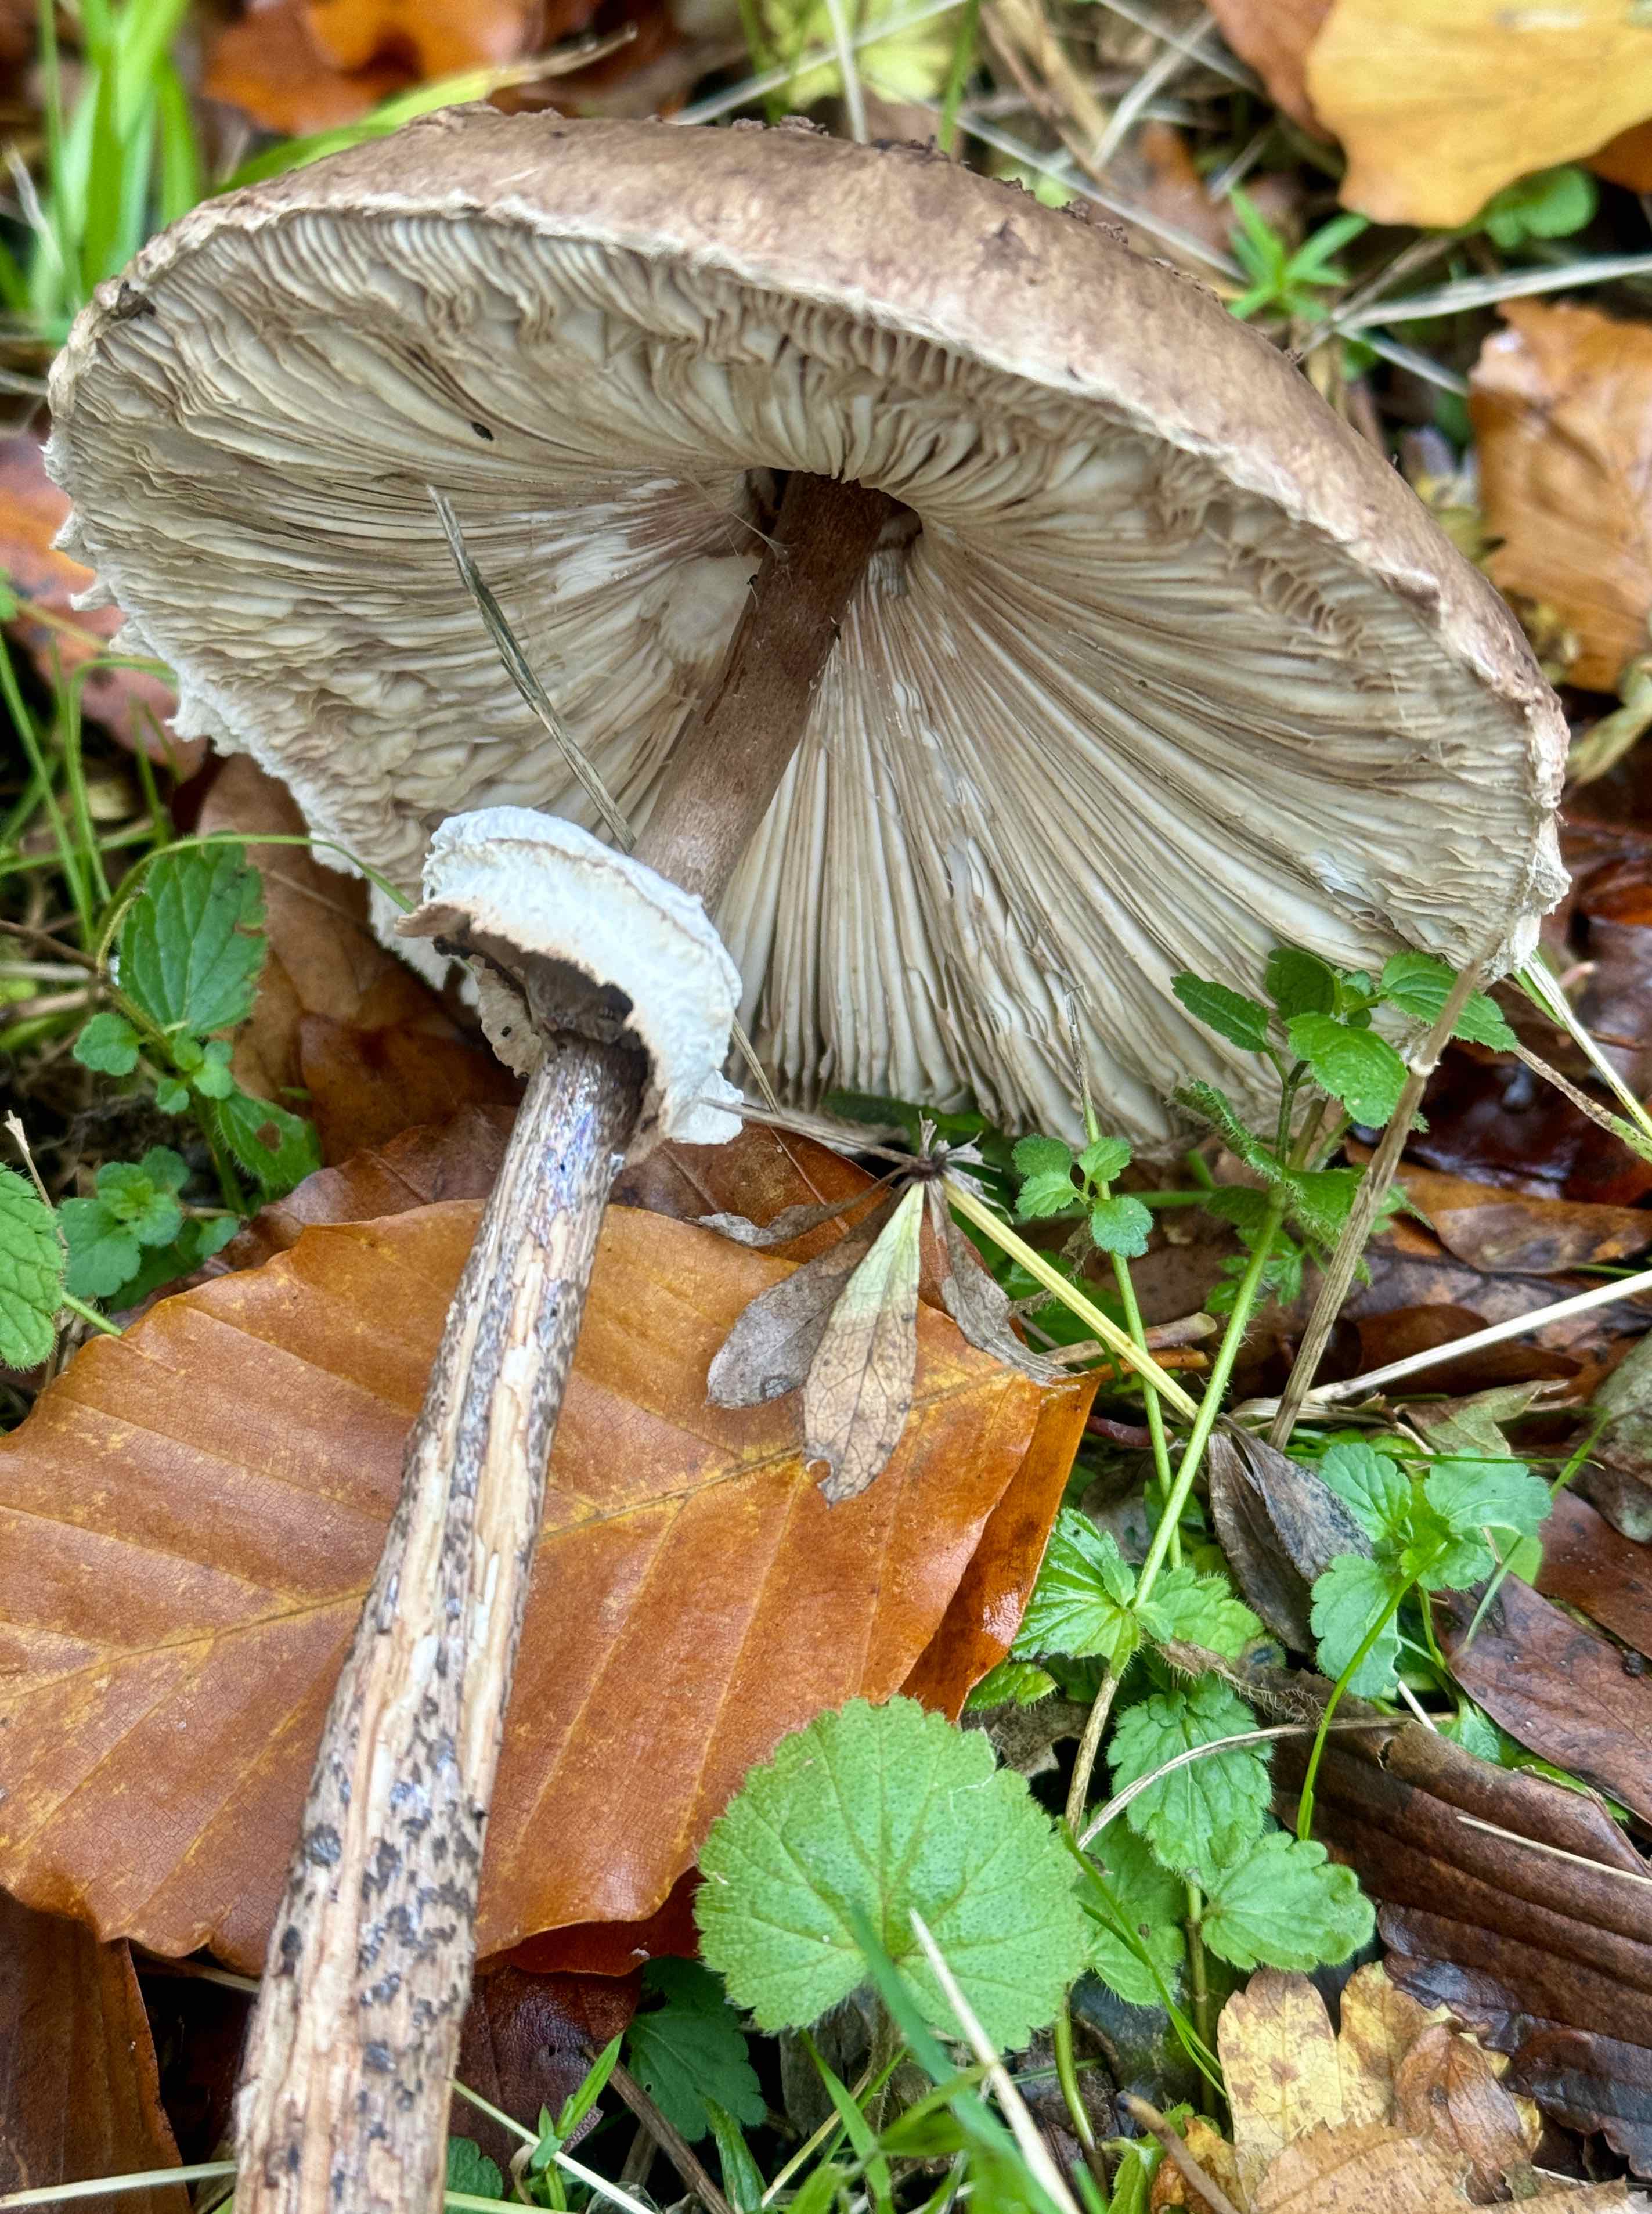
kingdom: Fungi
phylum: Basidiomycota
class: Agaricomycetes
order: Agaricales
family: Agaricaceae
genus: Macrolepiota
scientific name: Macrolepiota fuliginosa
